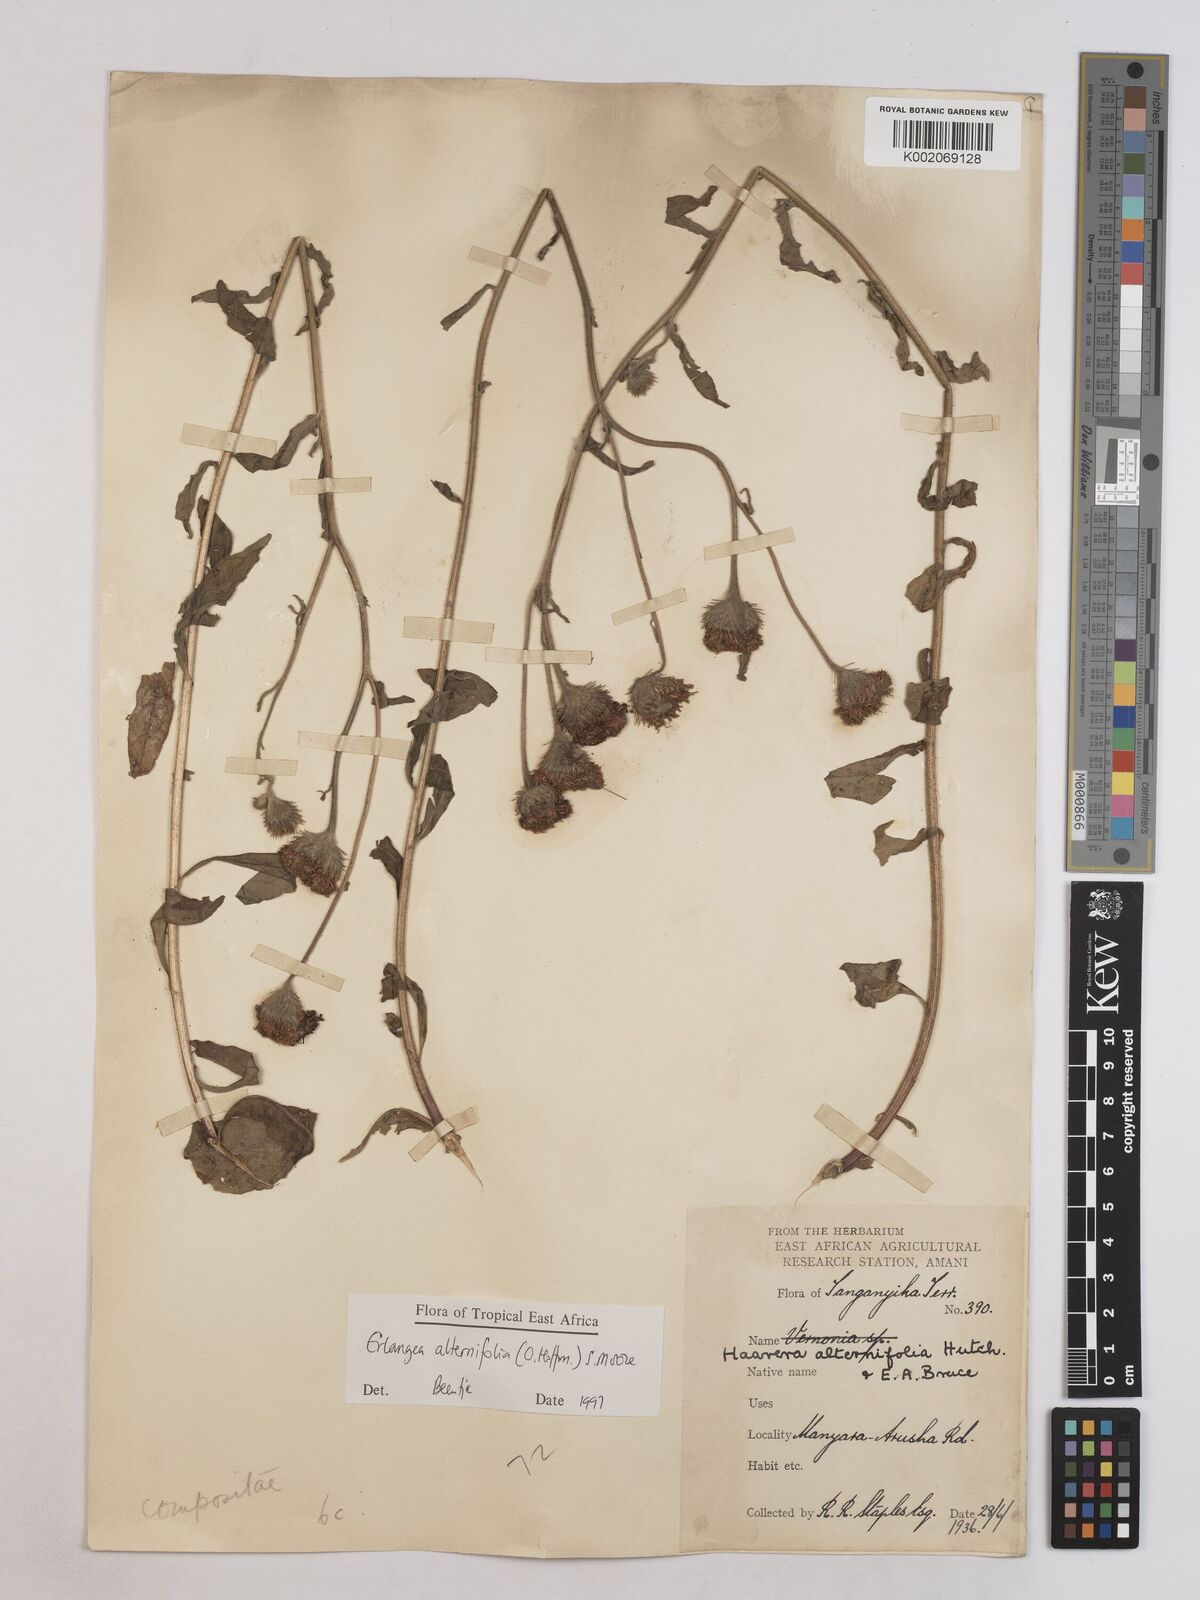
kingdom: Plantae
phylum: Tracheophyta
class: Magnoliopsida
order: Asterales
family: Asteraceae
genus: Erlangea
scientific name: Erlangea alternifolia
